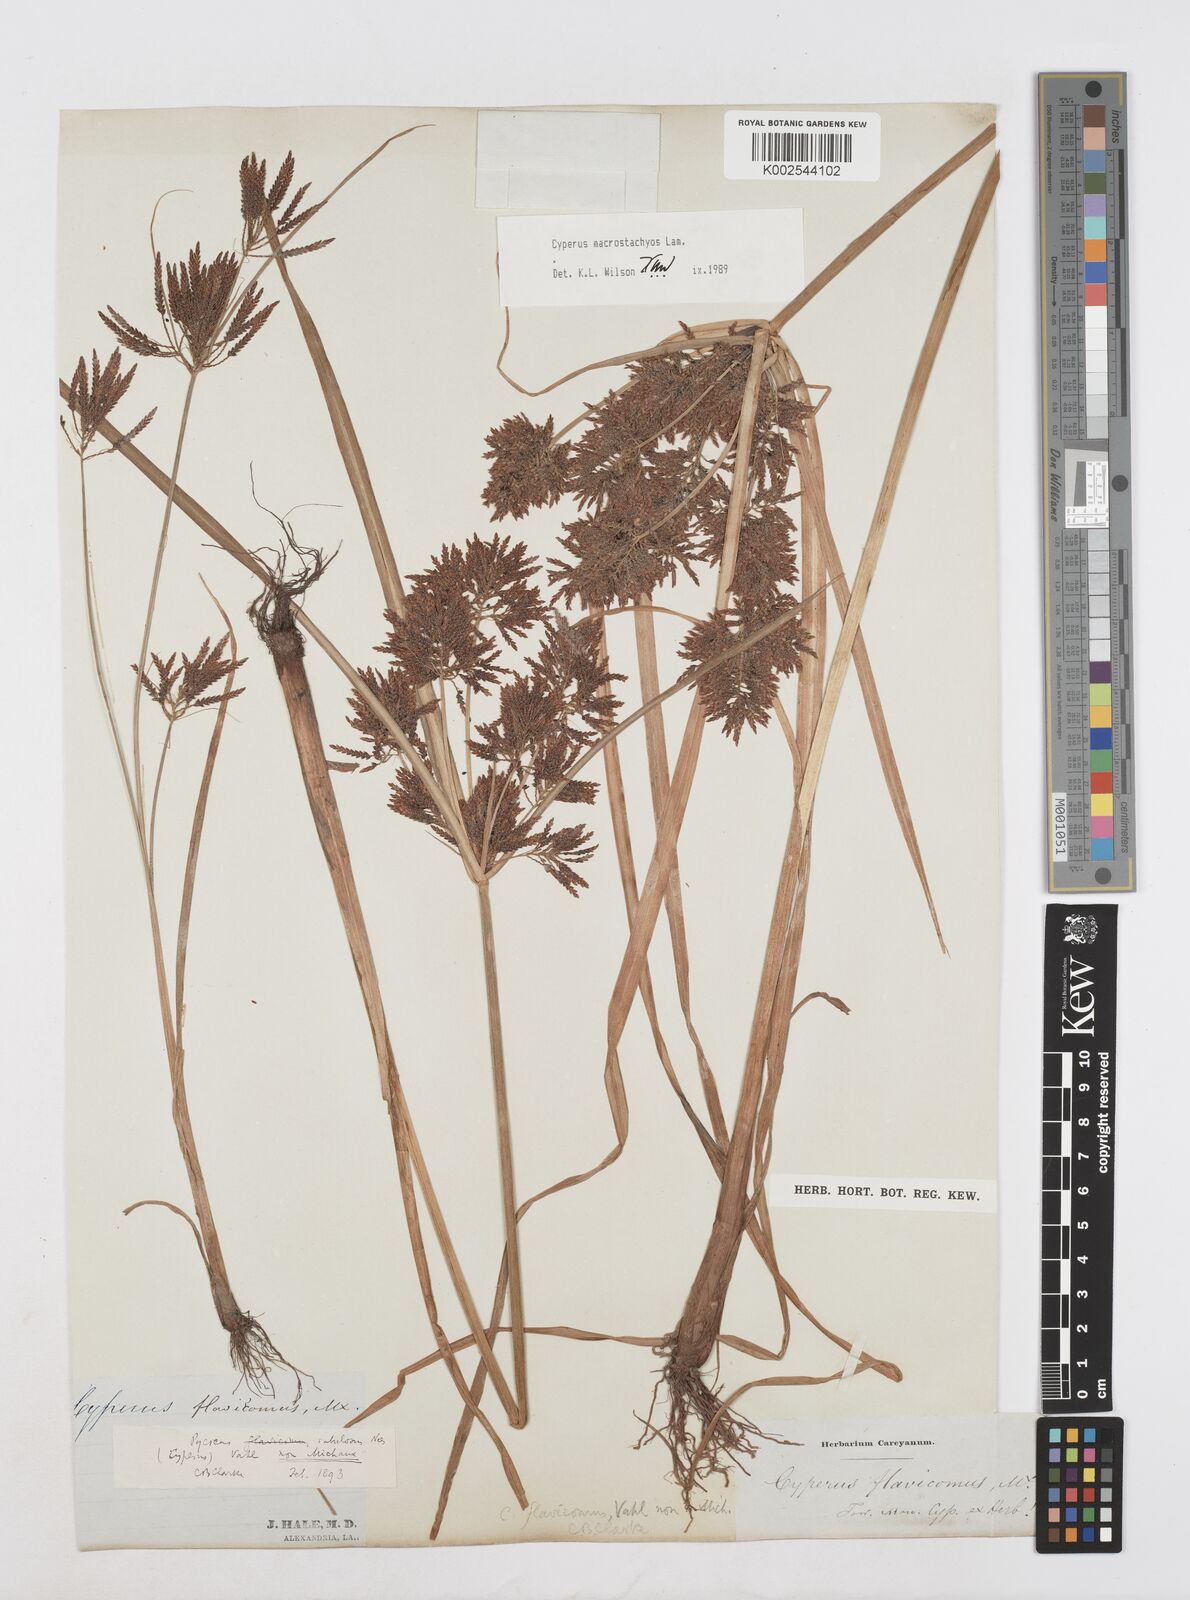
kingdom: Plantae
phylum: Tracheophyta
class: Liliopsida
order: Poales
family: Cyperaceae
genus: Cyperus
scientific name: Cyperus macrostachyos
